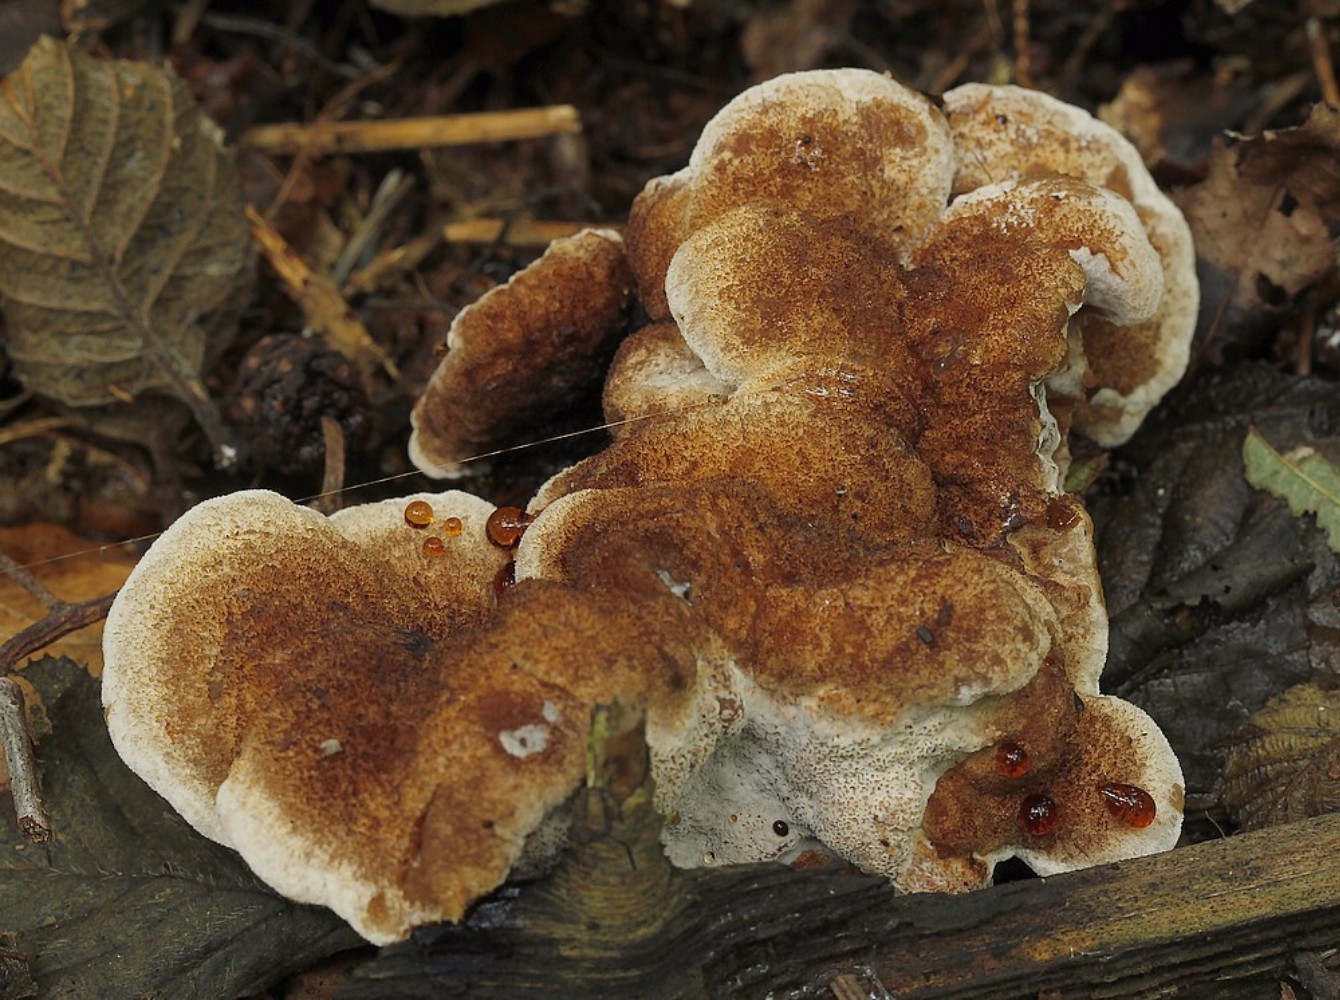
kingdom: Fungi
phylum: Basidiomycota
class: Agaricomycetes
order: Polyporales
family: Ischnodermataceae
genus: Ischnoderma
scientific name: Ischnoderma benzoinum
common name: gran-tjæreporesvamp
